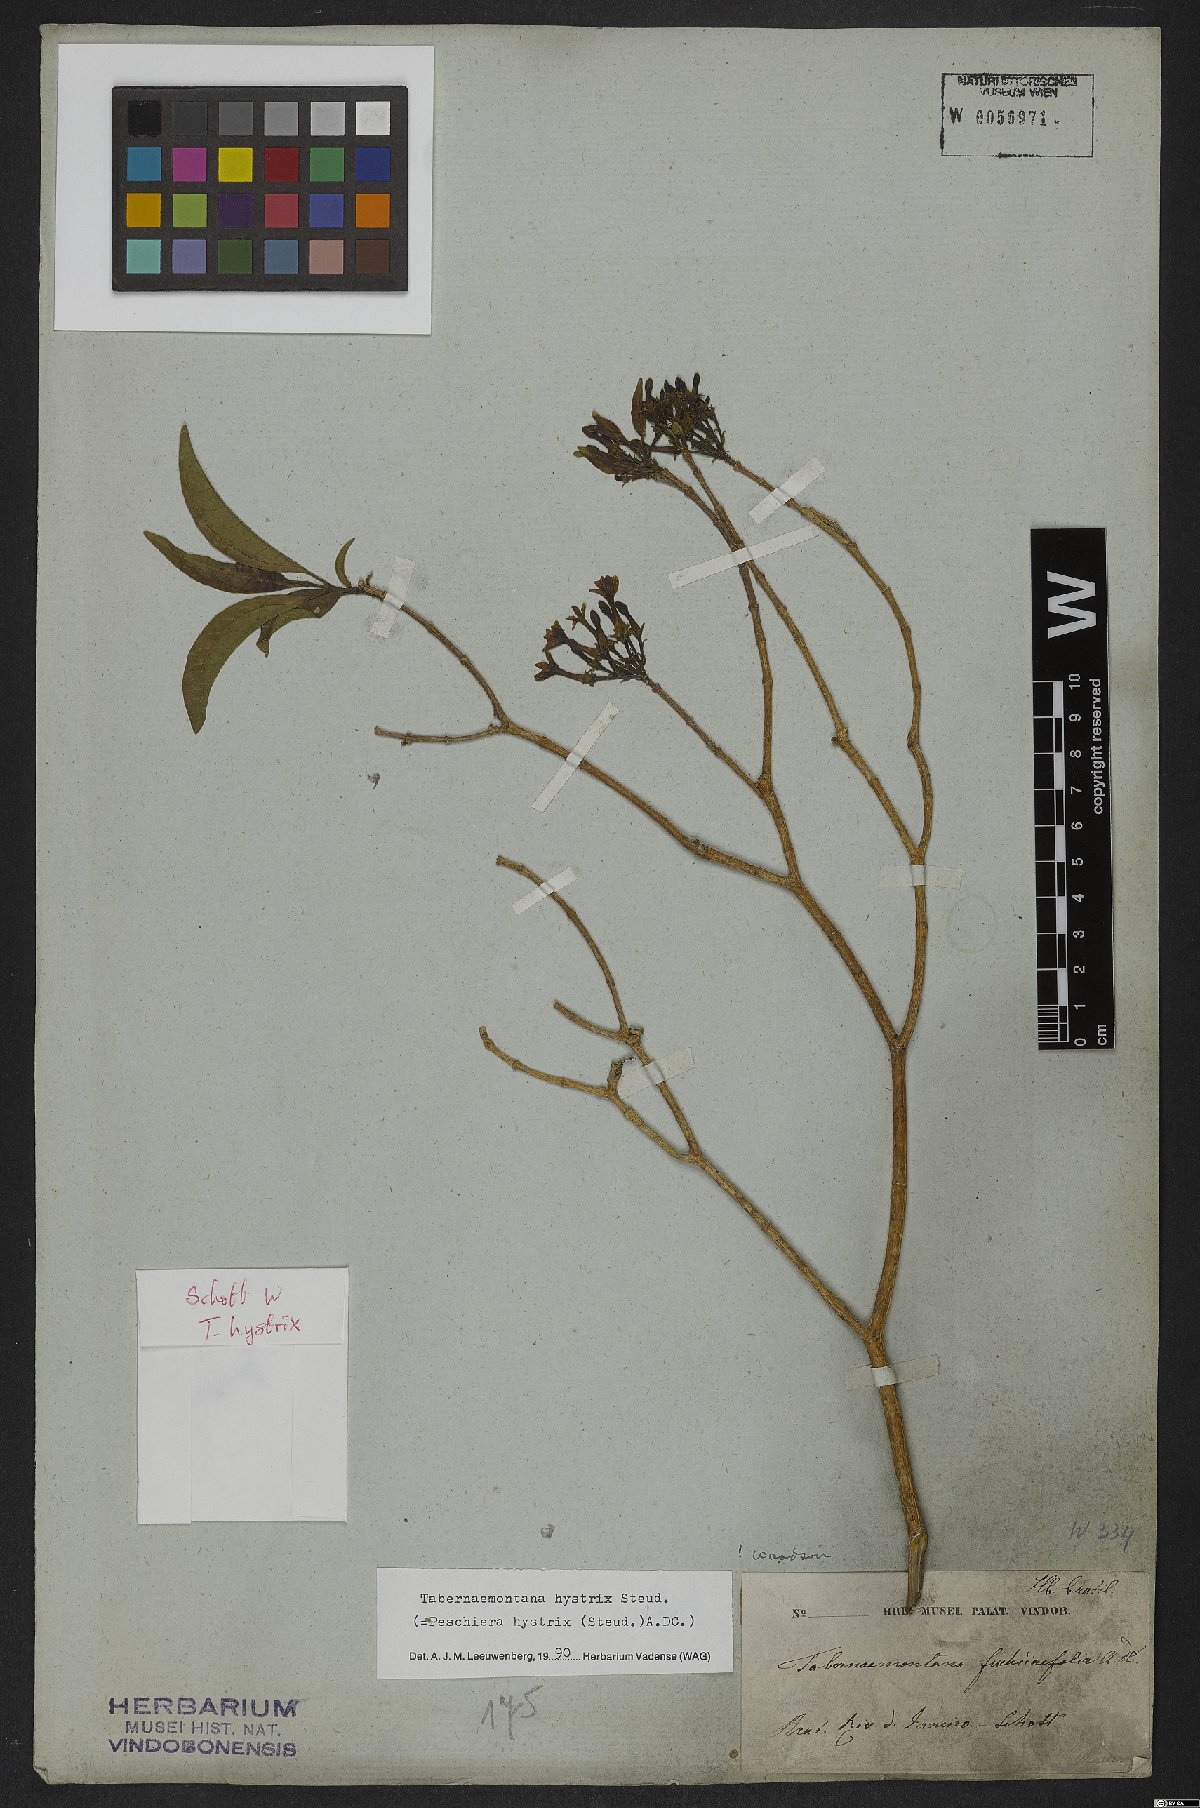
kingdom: Plantae
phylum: Tracheophyta
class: Magnoliopsida
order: Gentianales
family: Apocynaceae
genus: Tabernaemontana
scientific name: Tabernaemontana hystrix
